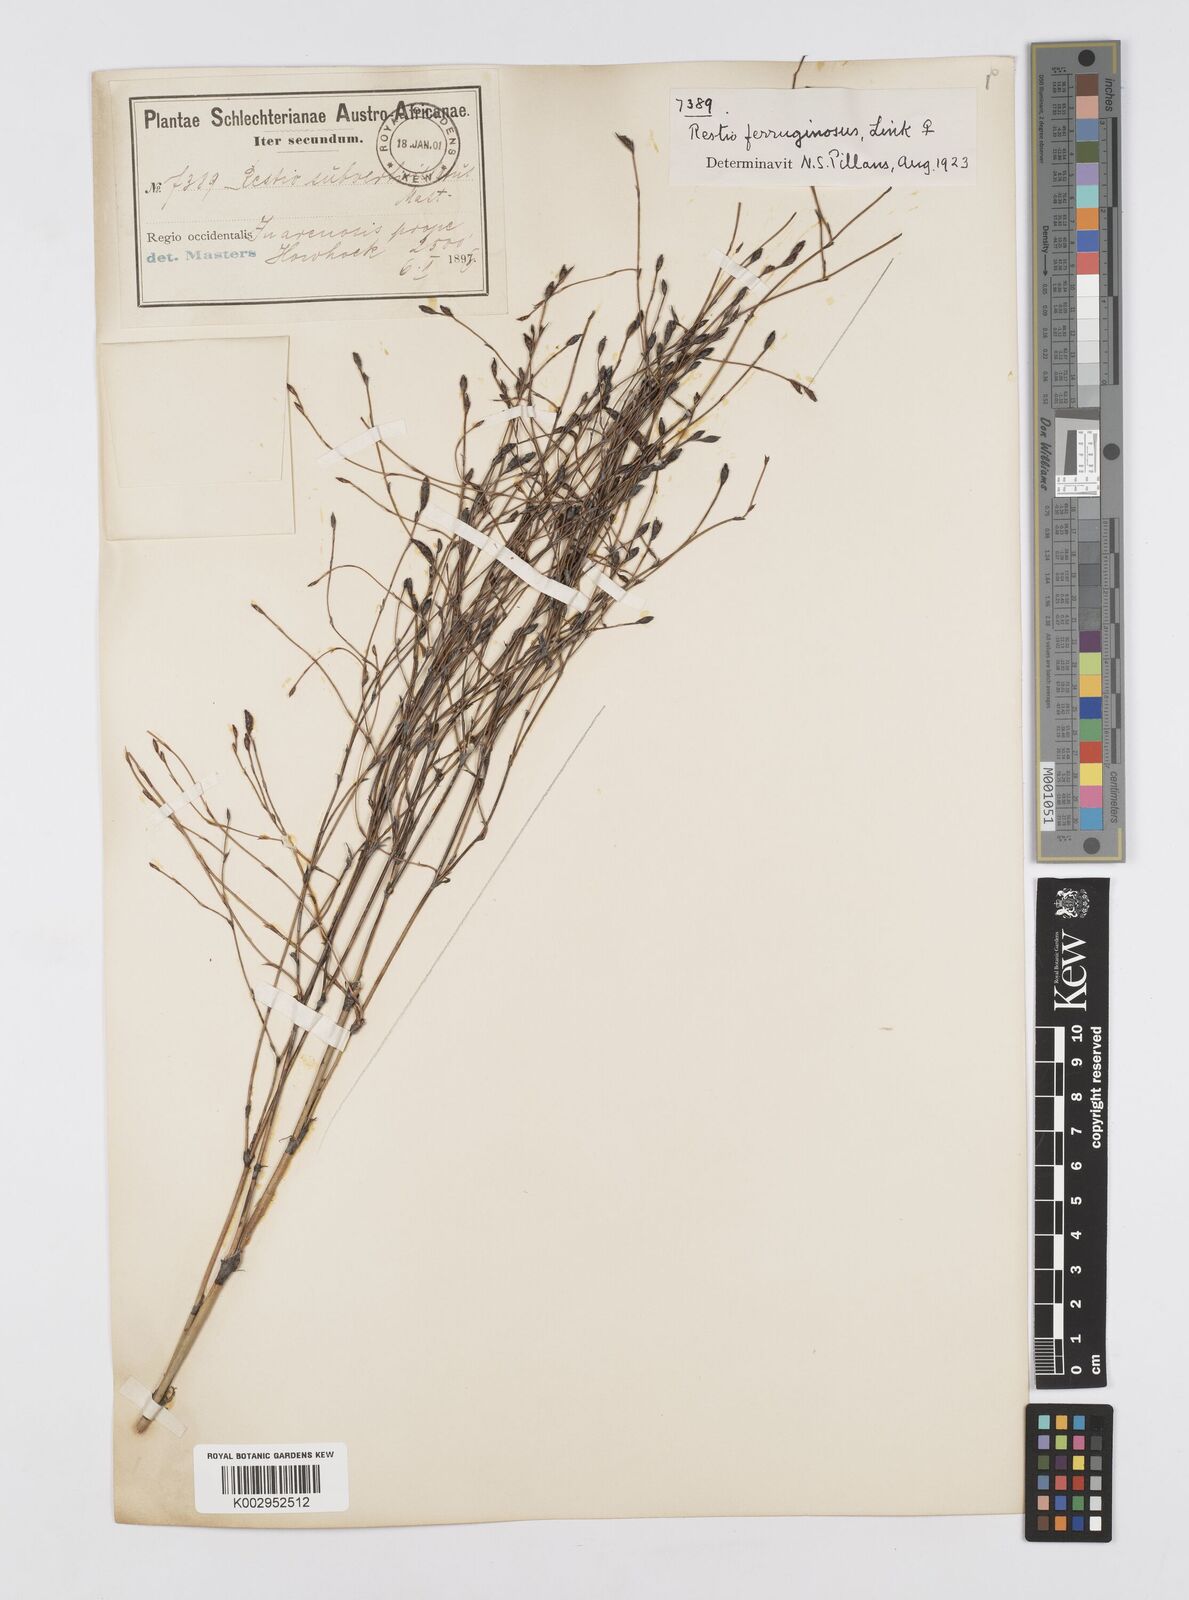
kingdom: Plantae
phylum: Tracheophyta
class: Liliopsida
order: Poales
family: Restionaceae
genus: Restio
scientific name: Restio gaudichaudianus
